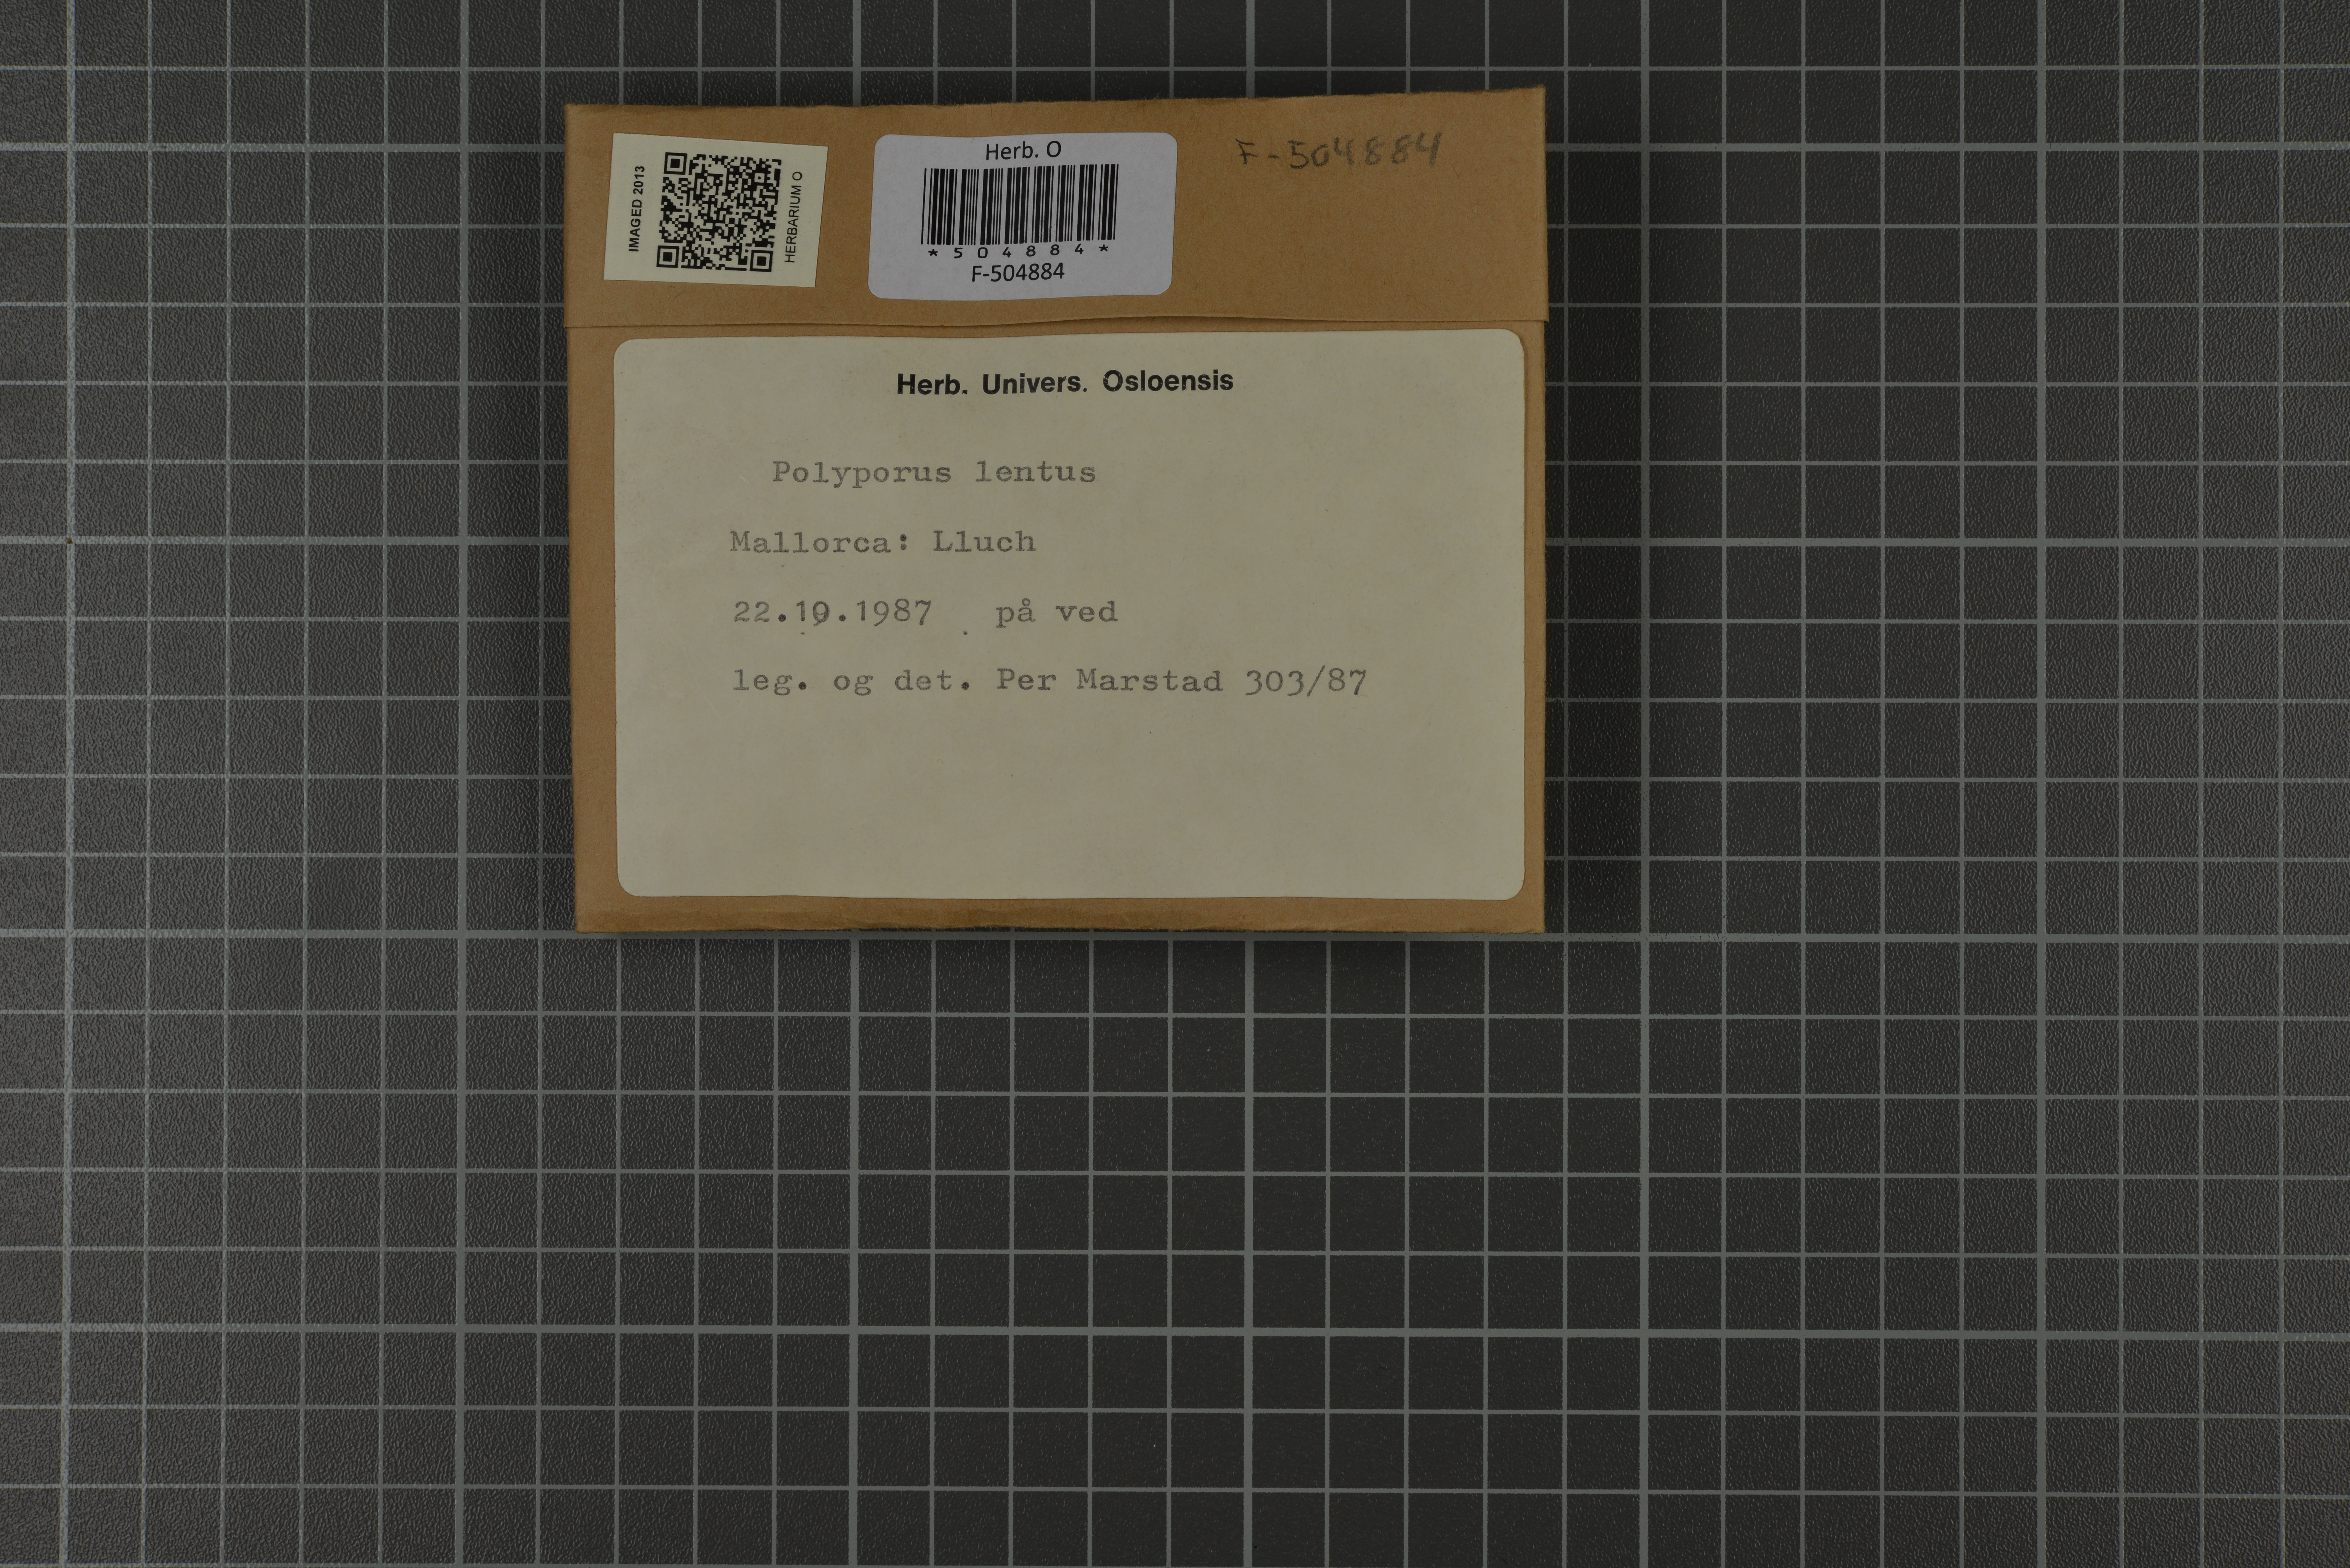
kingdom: Fungi
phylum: Basidiomycota
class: Agaricomycetes
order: Polyporales
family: Polyporaceae
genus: Polyporus
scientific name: Polyporus tuberaster
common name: Tuberous polypore
